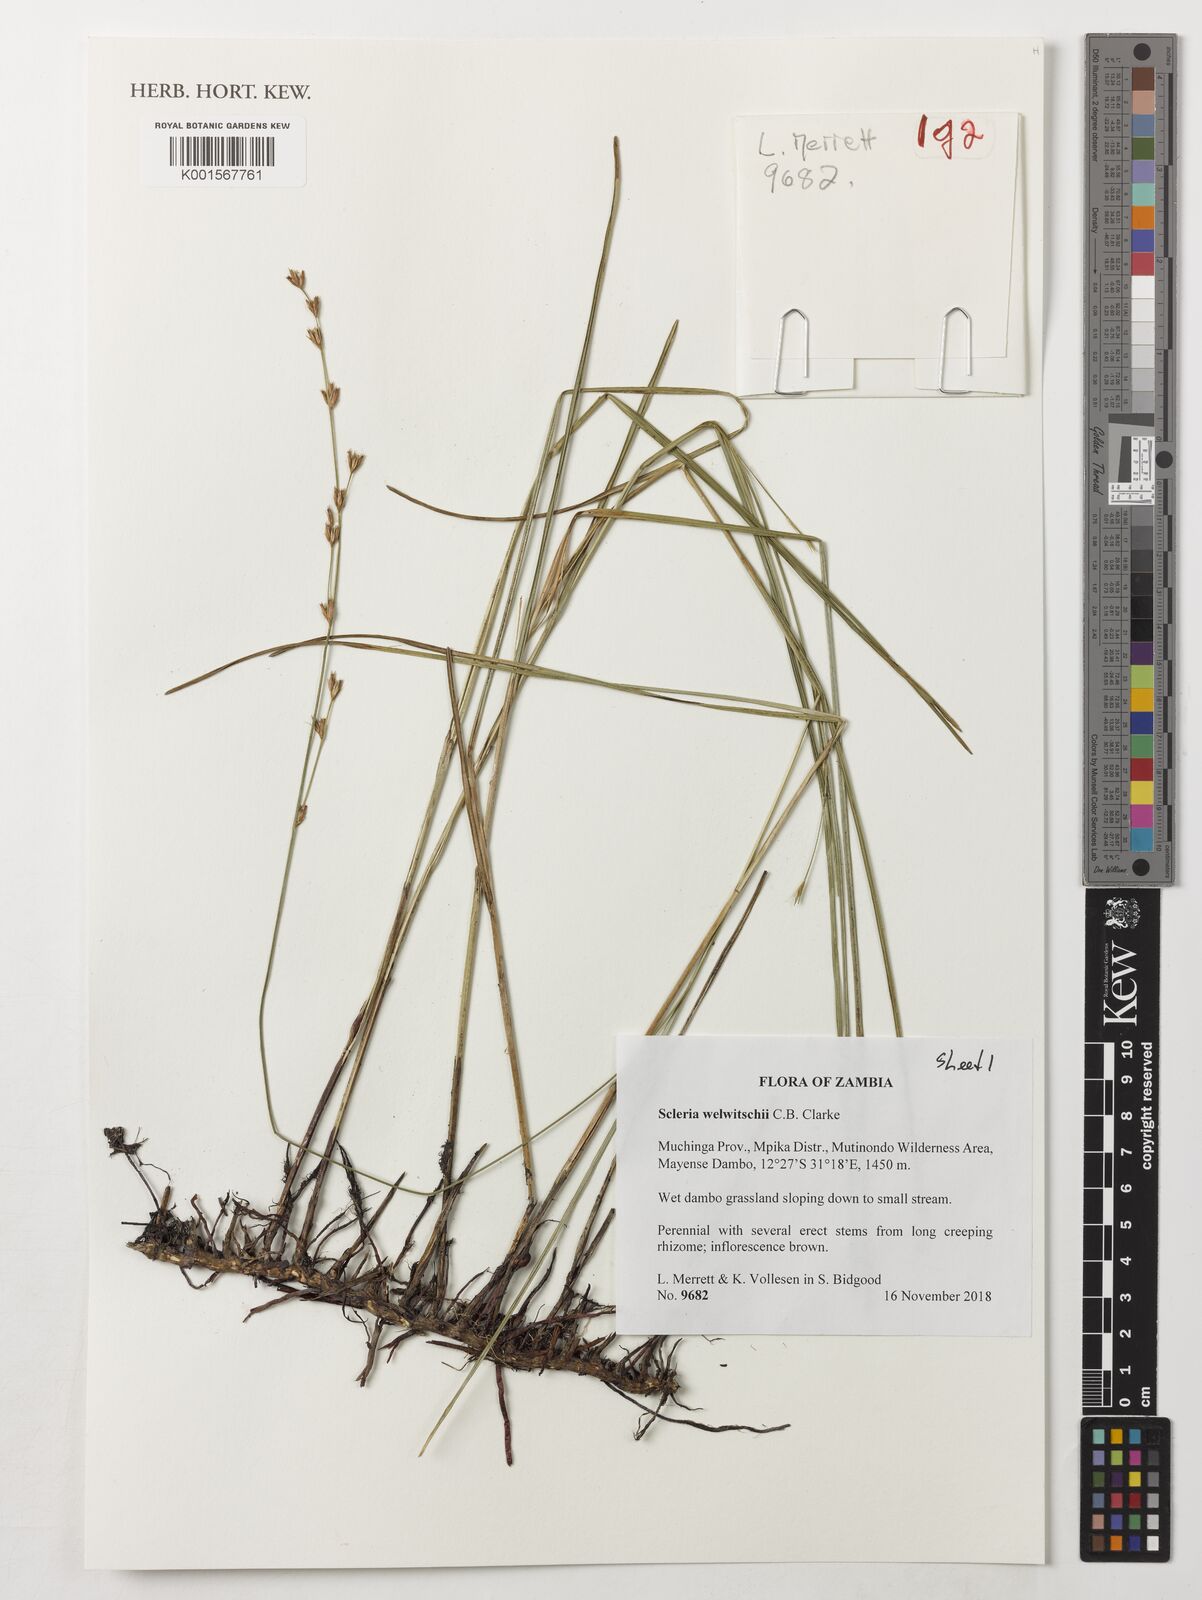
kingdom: Plantae
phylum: Tracheophyta
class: Liliopsida
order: Poales
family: Cyperaceae
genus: Scleria
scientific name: Scleria welwitschii
